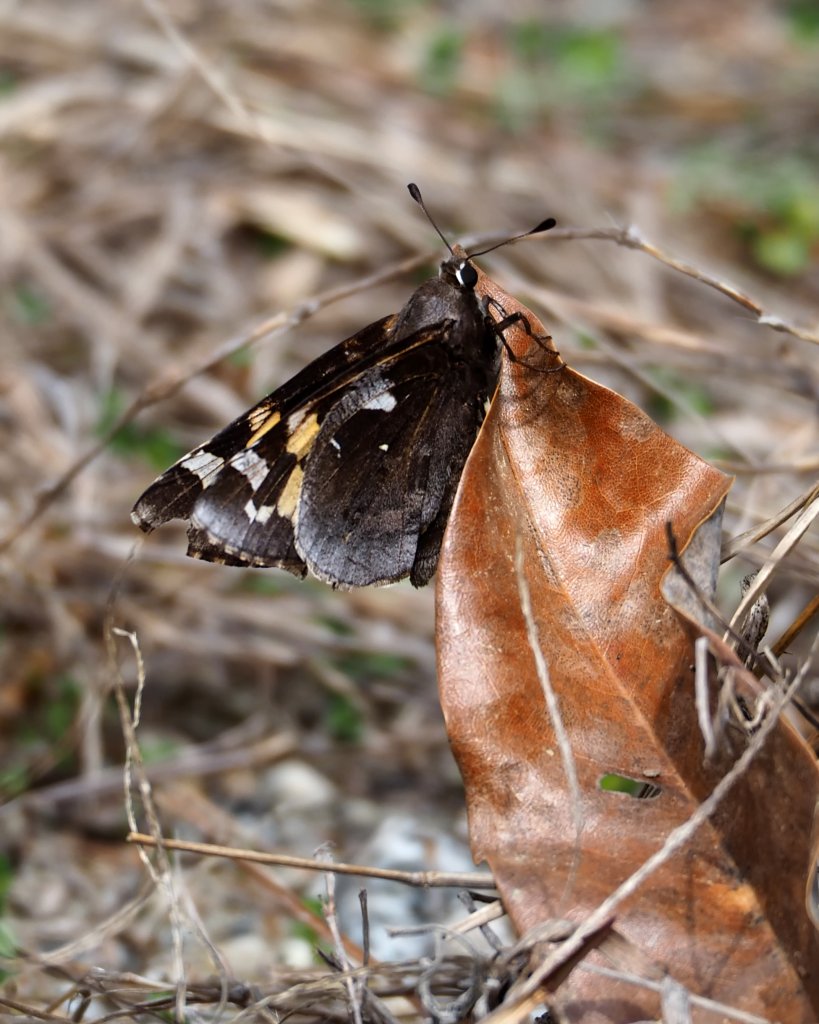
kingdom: Animalia
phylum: Arthropoda
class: Insecta
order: Lepidoptera
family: Hesperiidae
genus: Megathymus
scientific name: Megathymus yuccae
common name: Yucca Giant-Skipper
